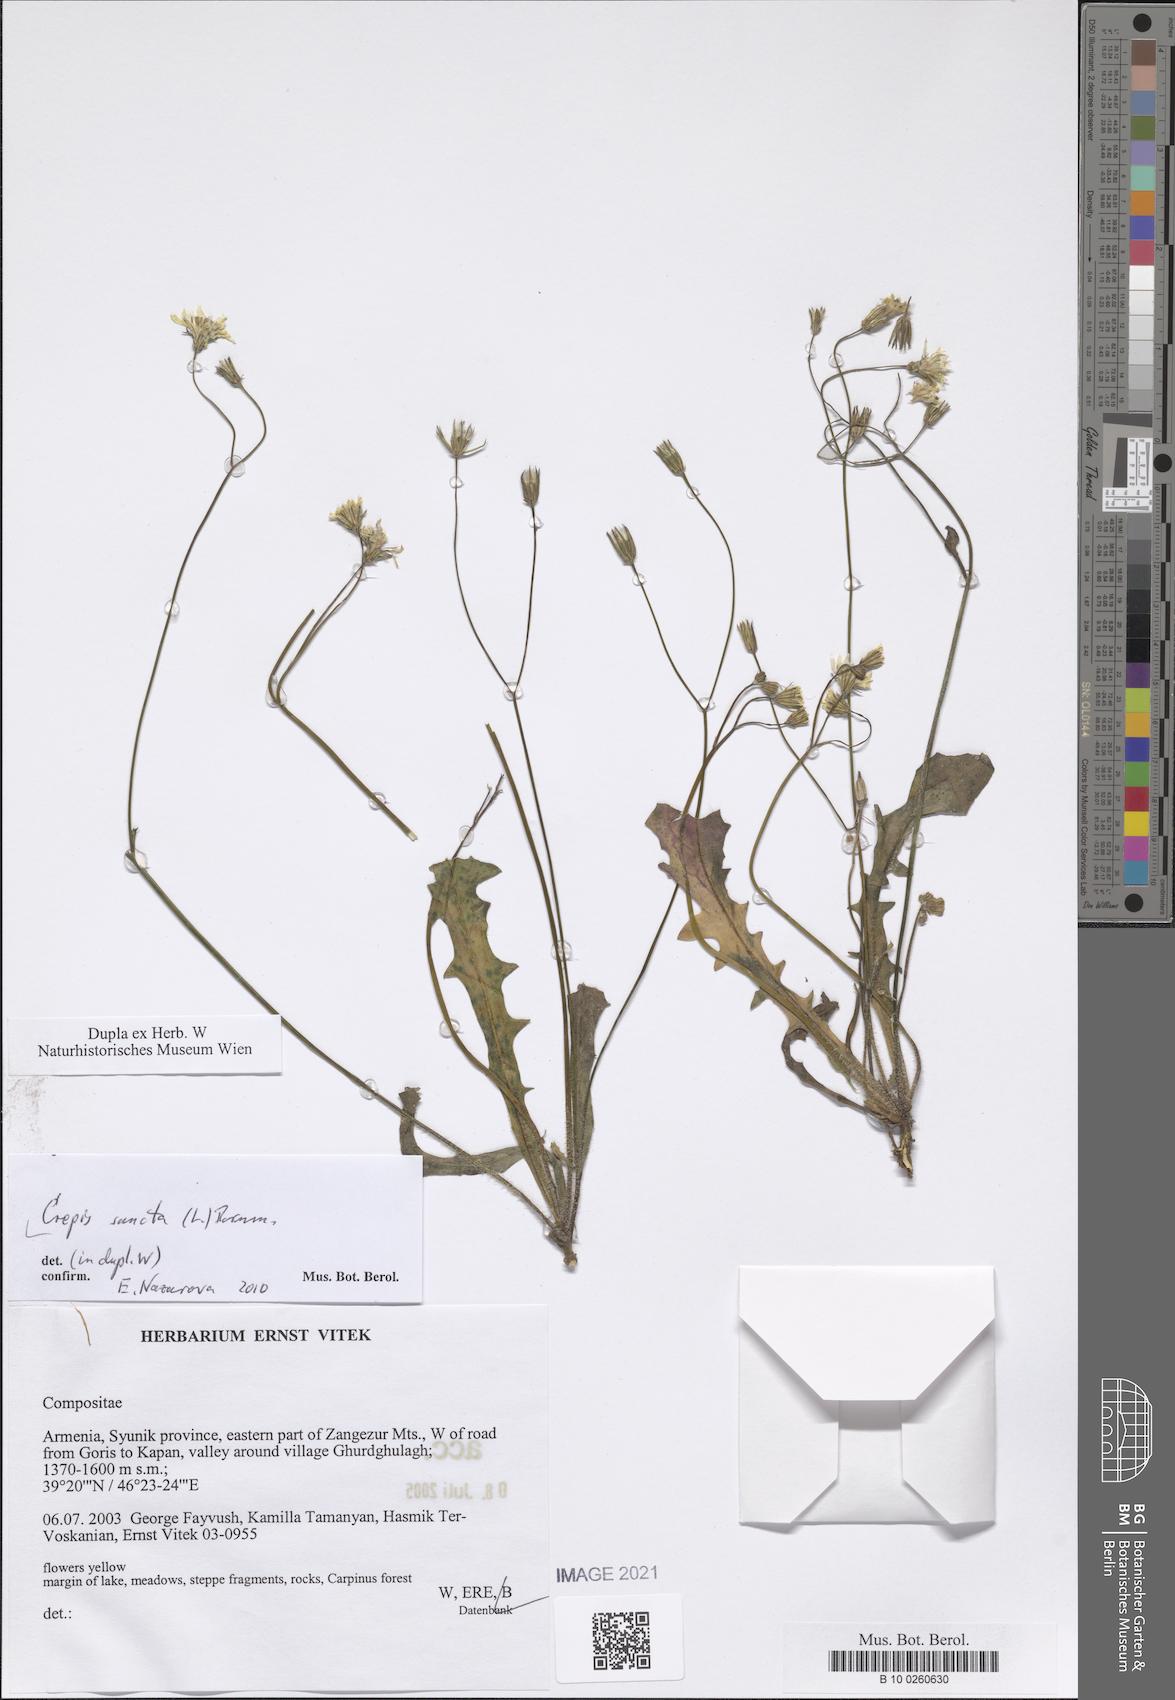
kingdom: Plantae
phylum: Tracheophyta
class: Magnoliopsida
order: Asterales
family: Asteraceae
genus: Crepis
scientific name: Crepis sancta
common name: Hawk's-beard
